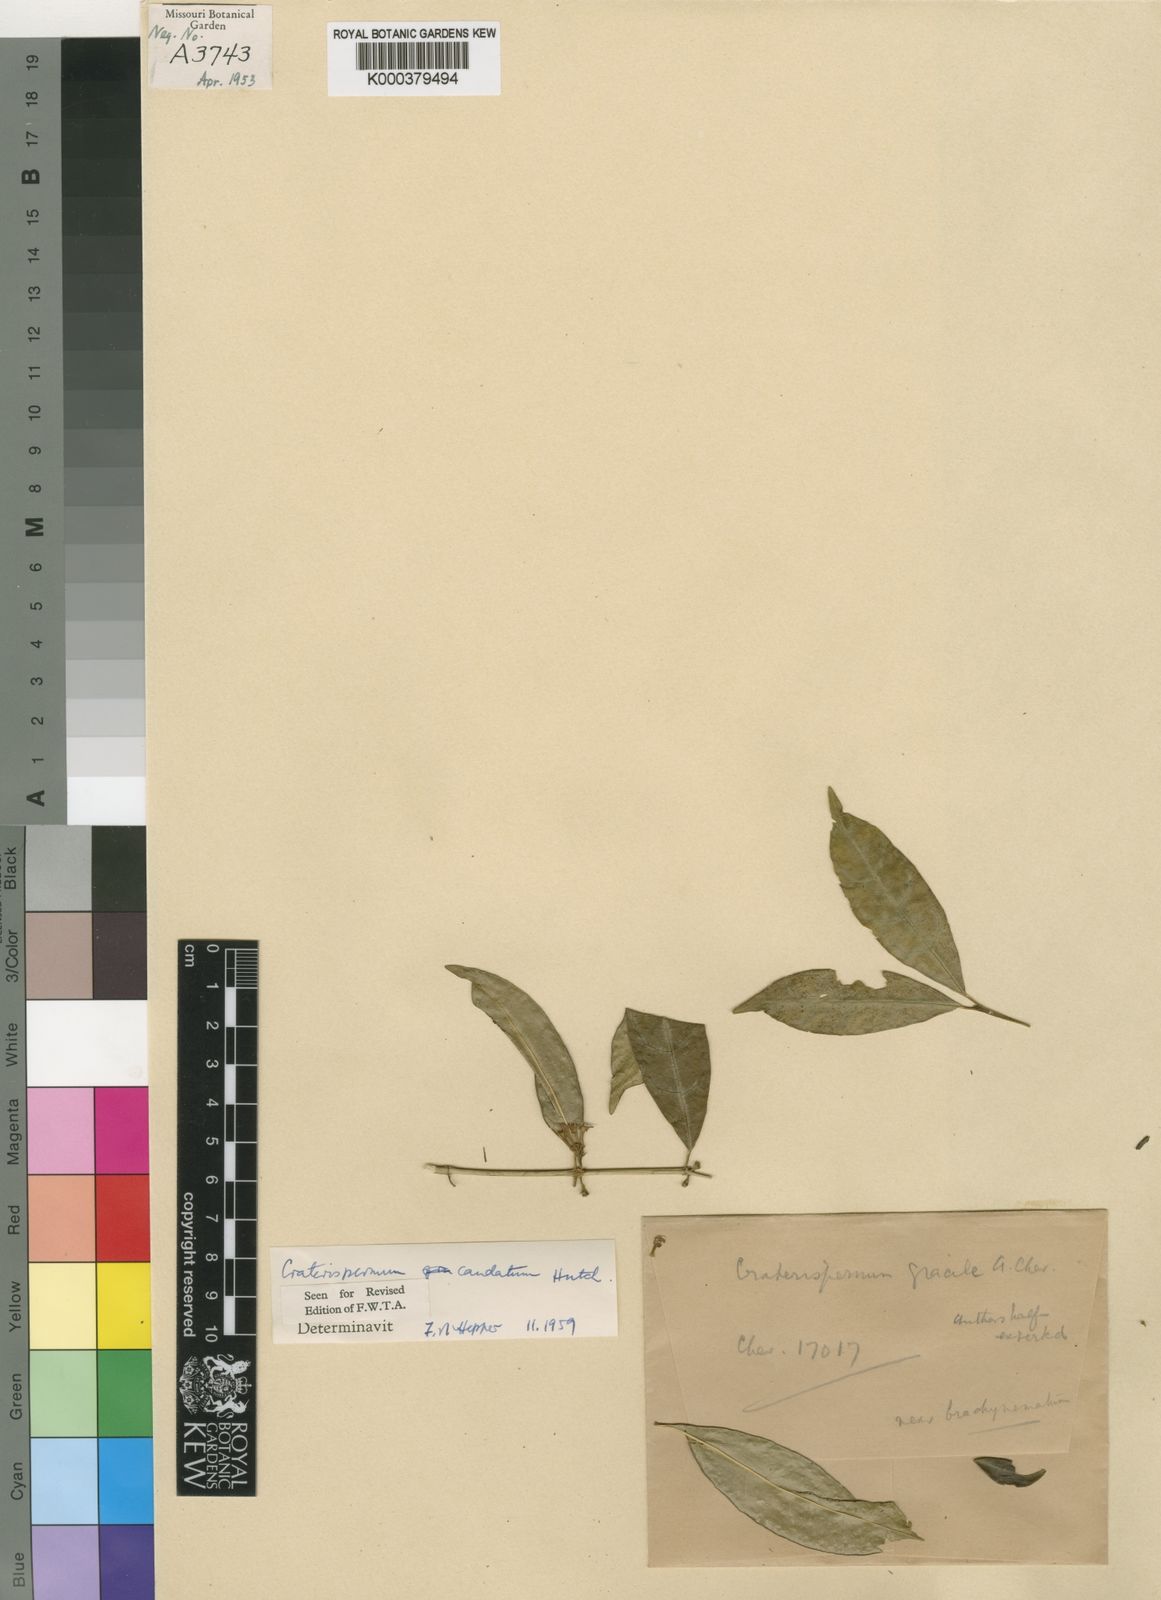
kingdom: Plantae
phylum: Tracheophyta
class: Magnoliopsida
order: Gentianales
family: Rubiaceae
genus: Craterispermum
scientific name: Craterispermum caudatum
